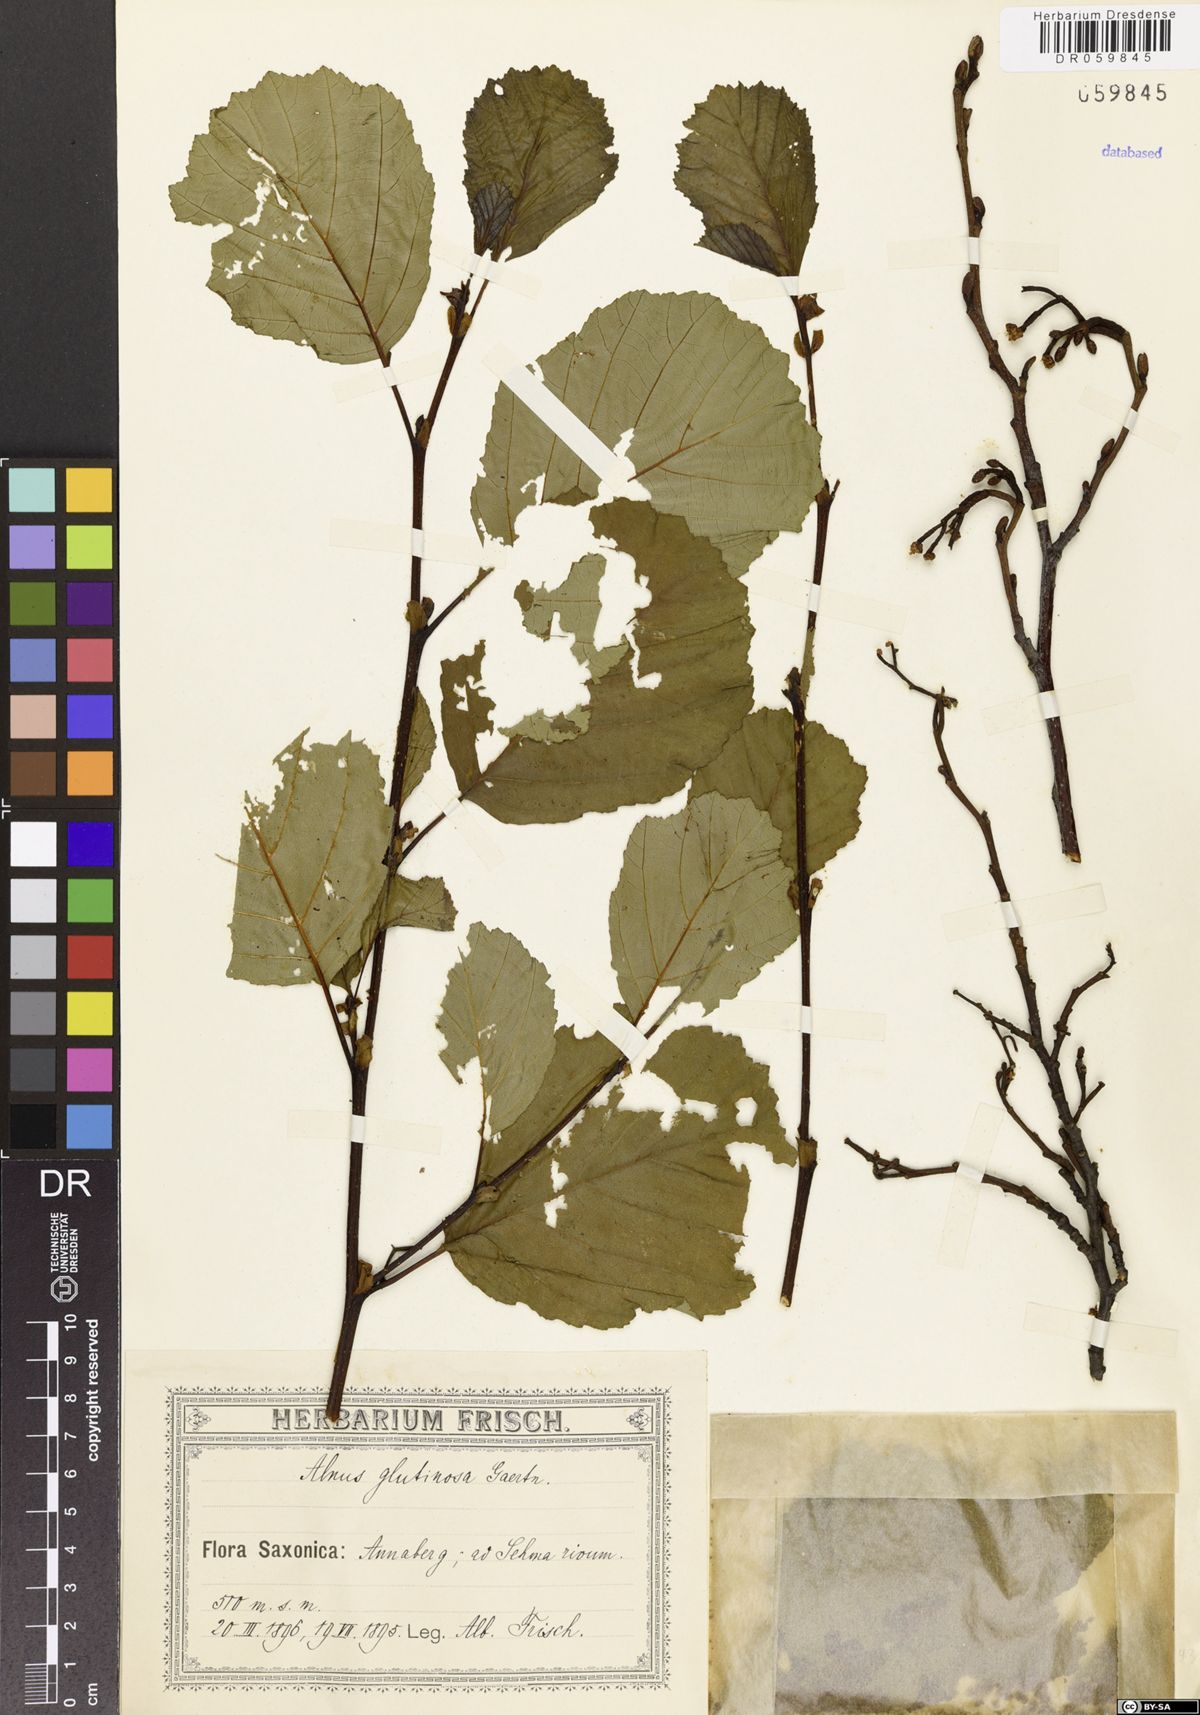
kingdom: Plantae
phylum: Tracheophyta
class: Magnoliopsida
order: Fagales
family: Betulaceae
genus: Alnus
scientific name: Alnus glutinosa
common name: Black alder
